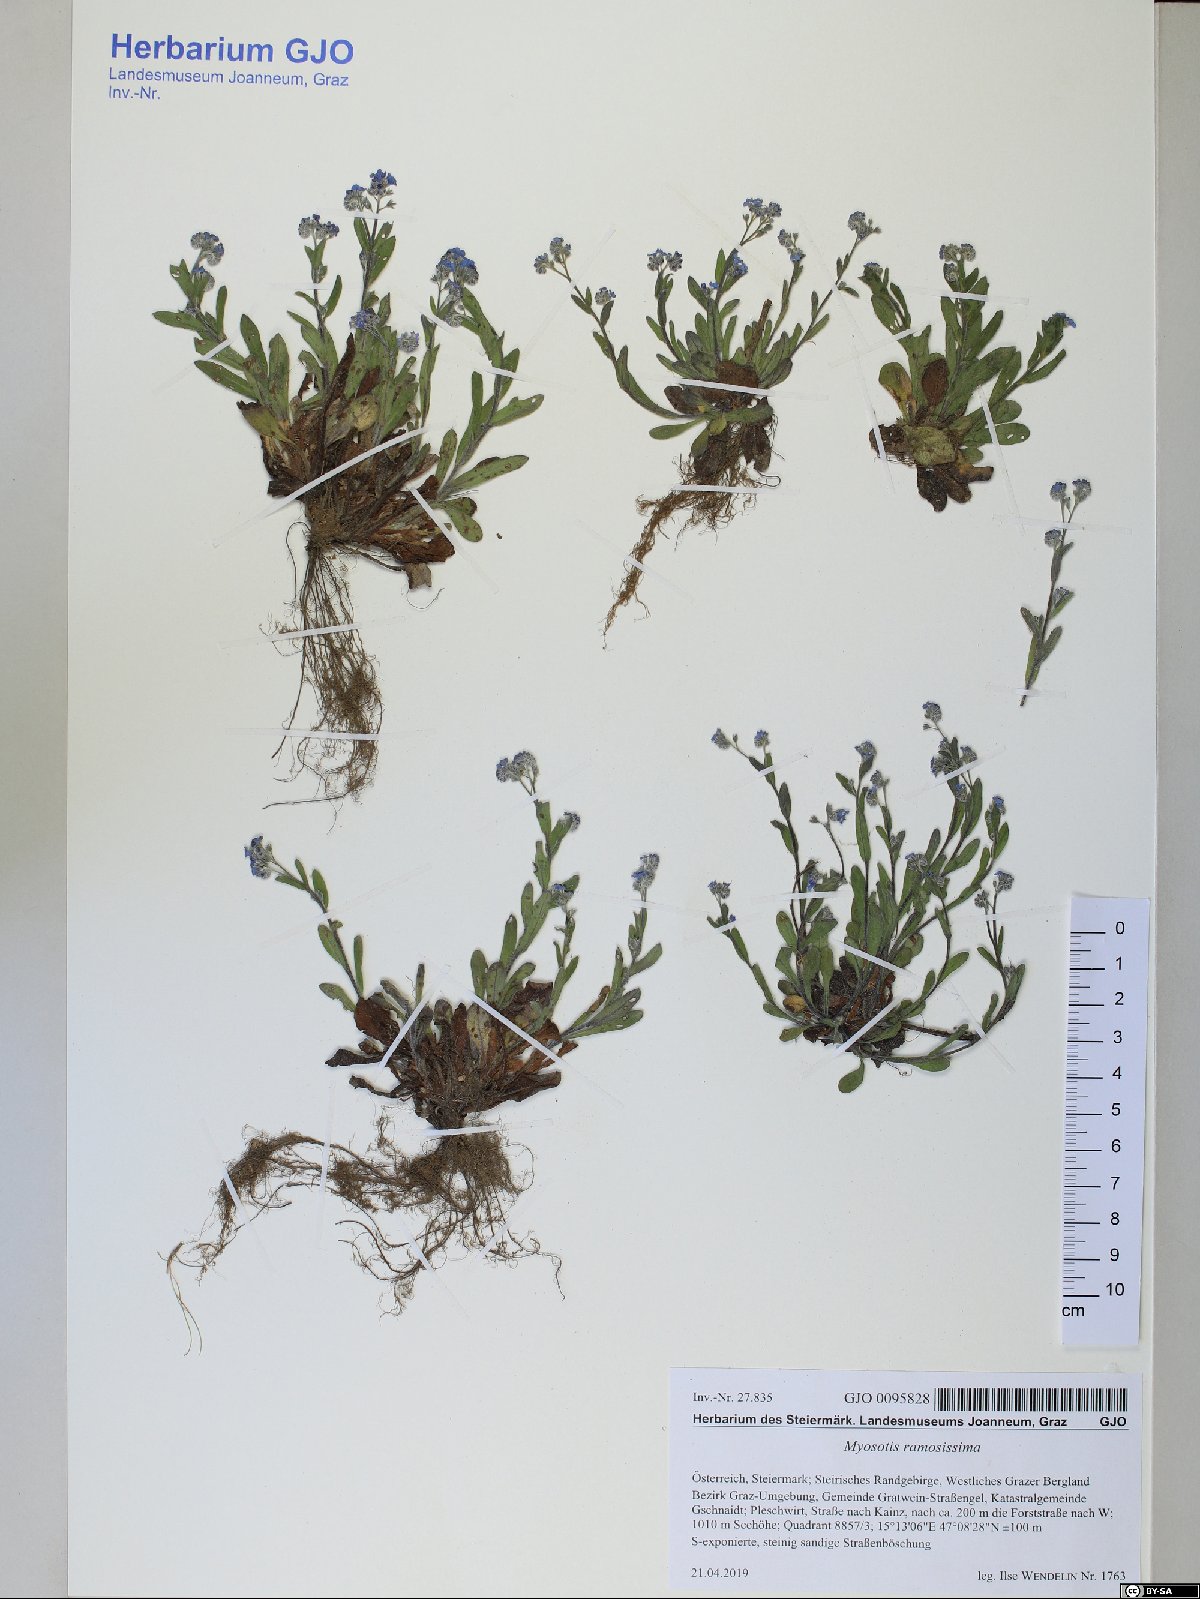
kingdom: Plantae
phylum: Tracheophyta
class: Magnoliopsida
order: Boraginales
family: Boraginaceae
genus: Myosotis
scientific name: Myosotis ramosissima
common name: Early forget-me-not
